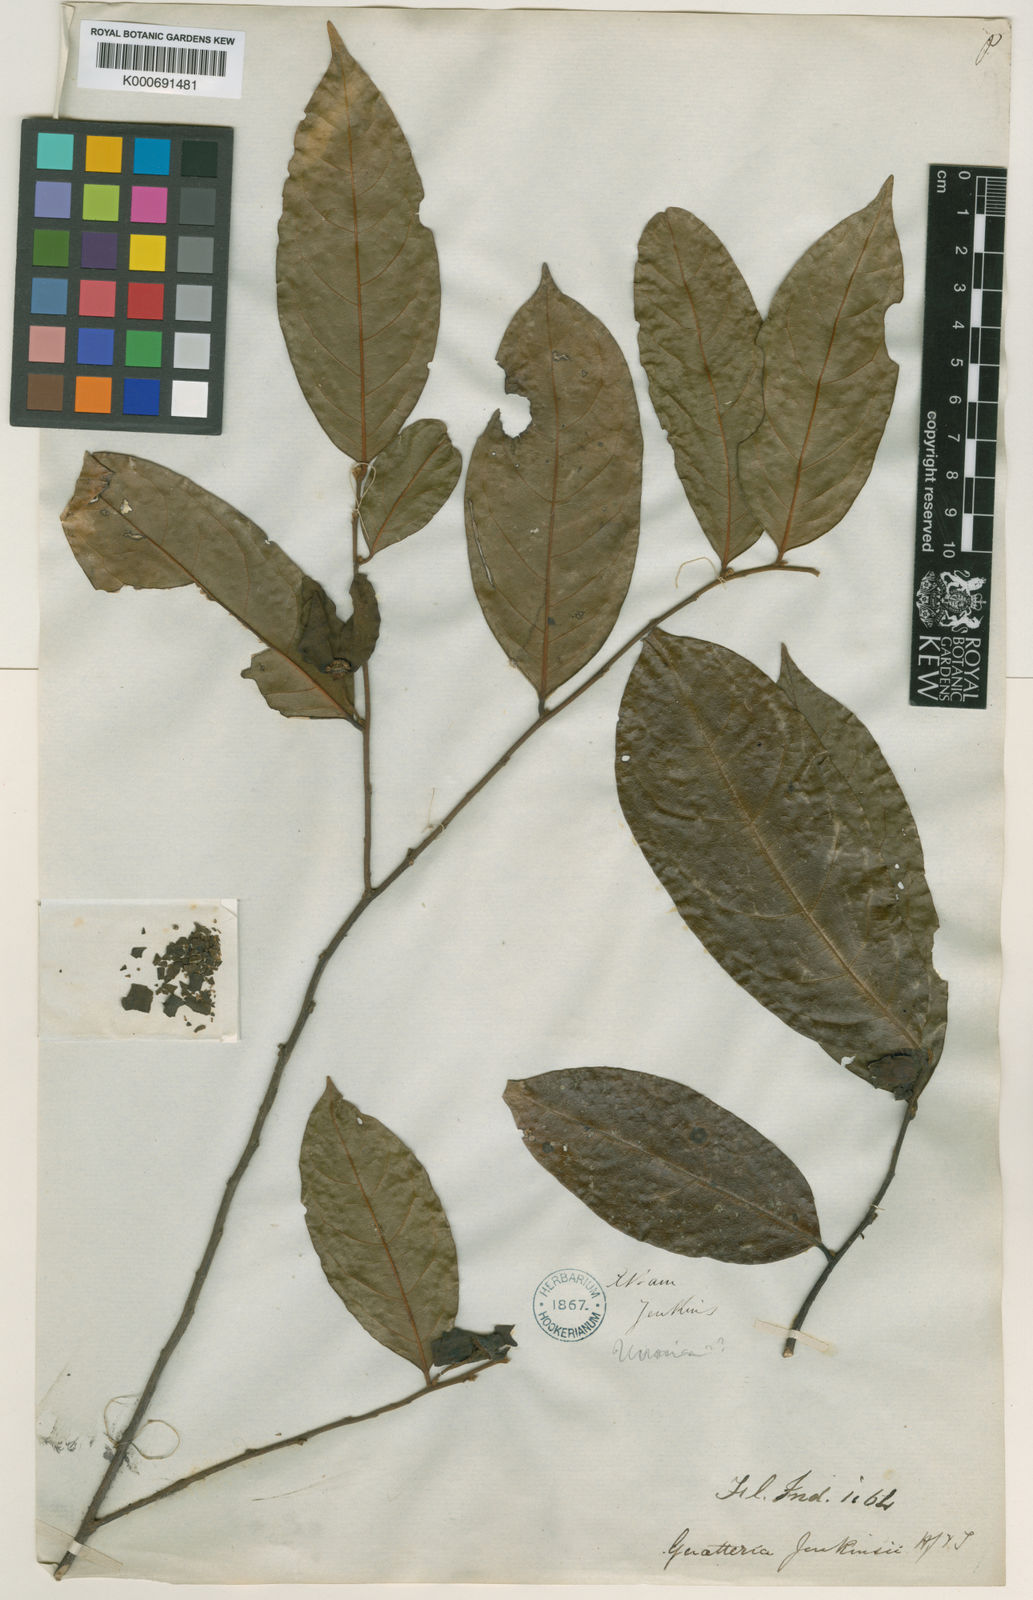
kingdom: Plantae
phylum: Tracheophyta
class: Magnoliopsida
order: Magnoliales
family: Annonaceae
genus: Hubera
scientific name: Hubera jenkinsii
